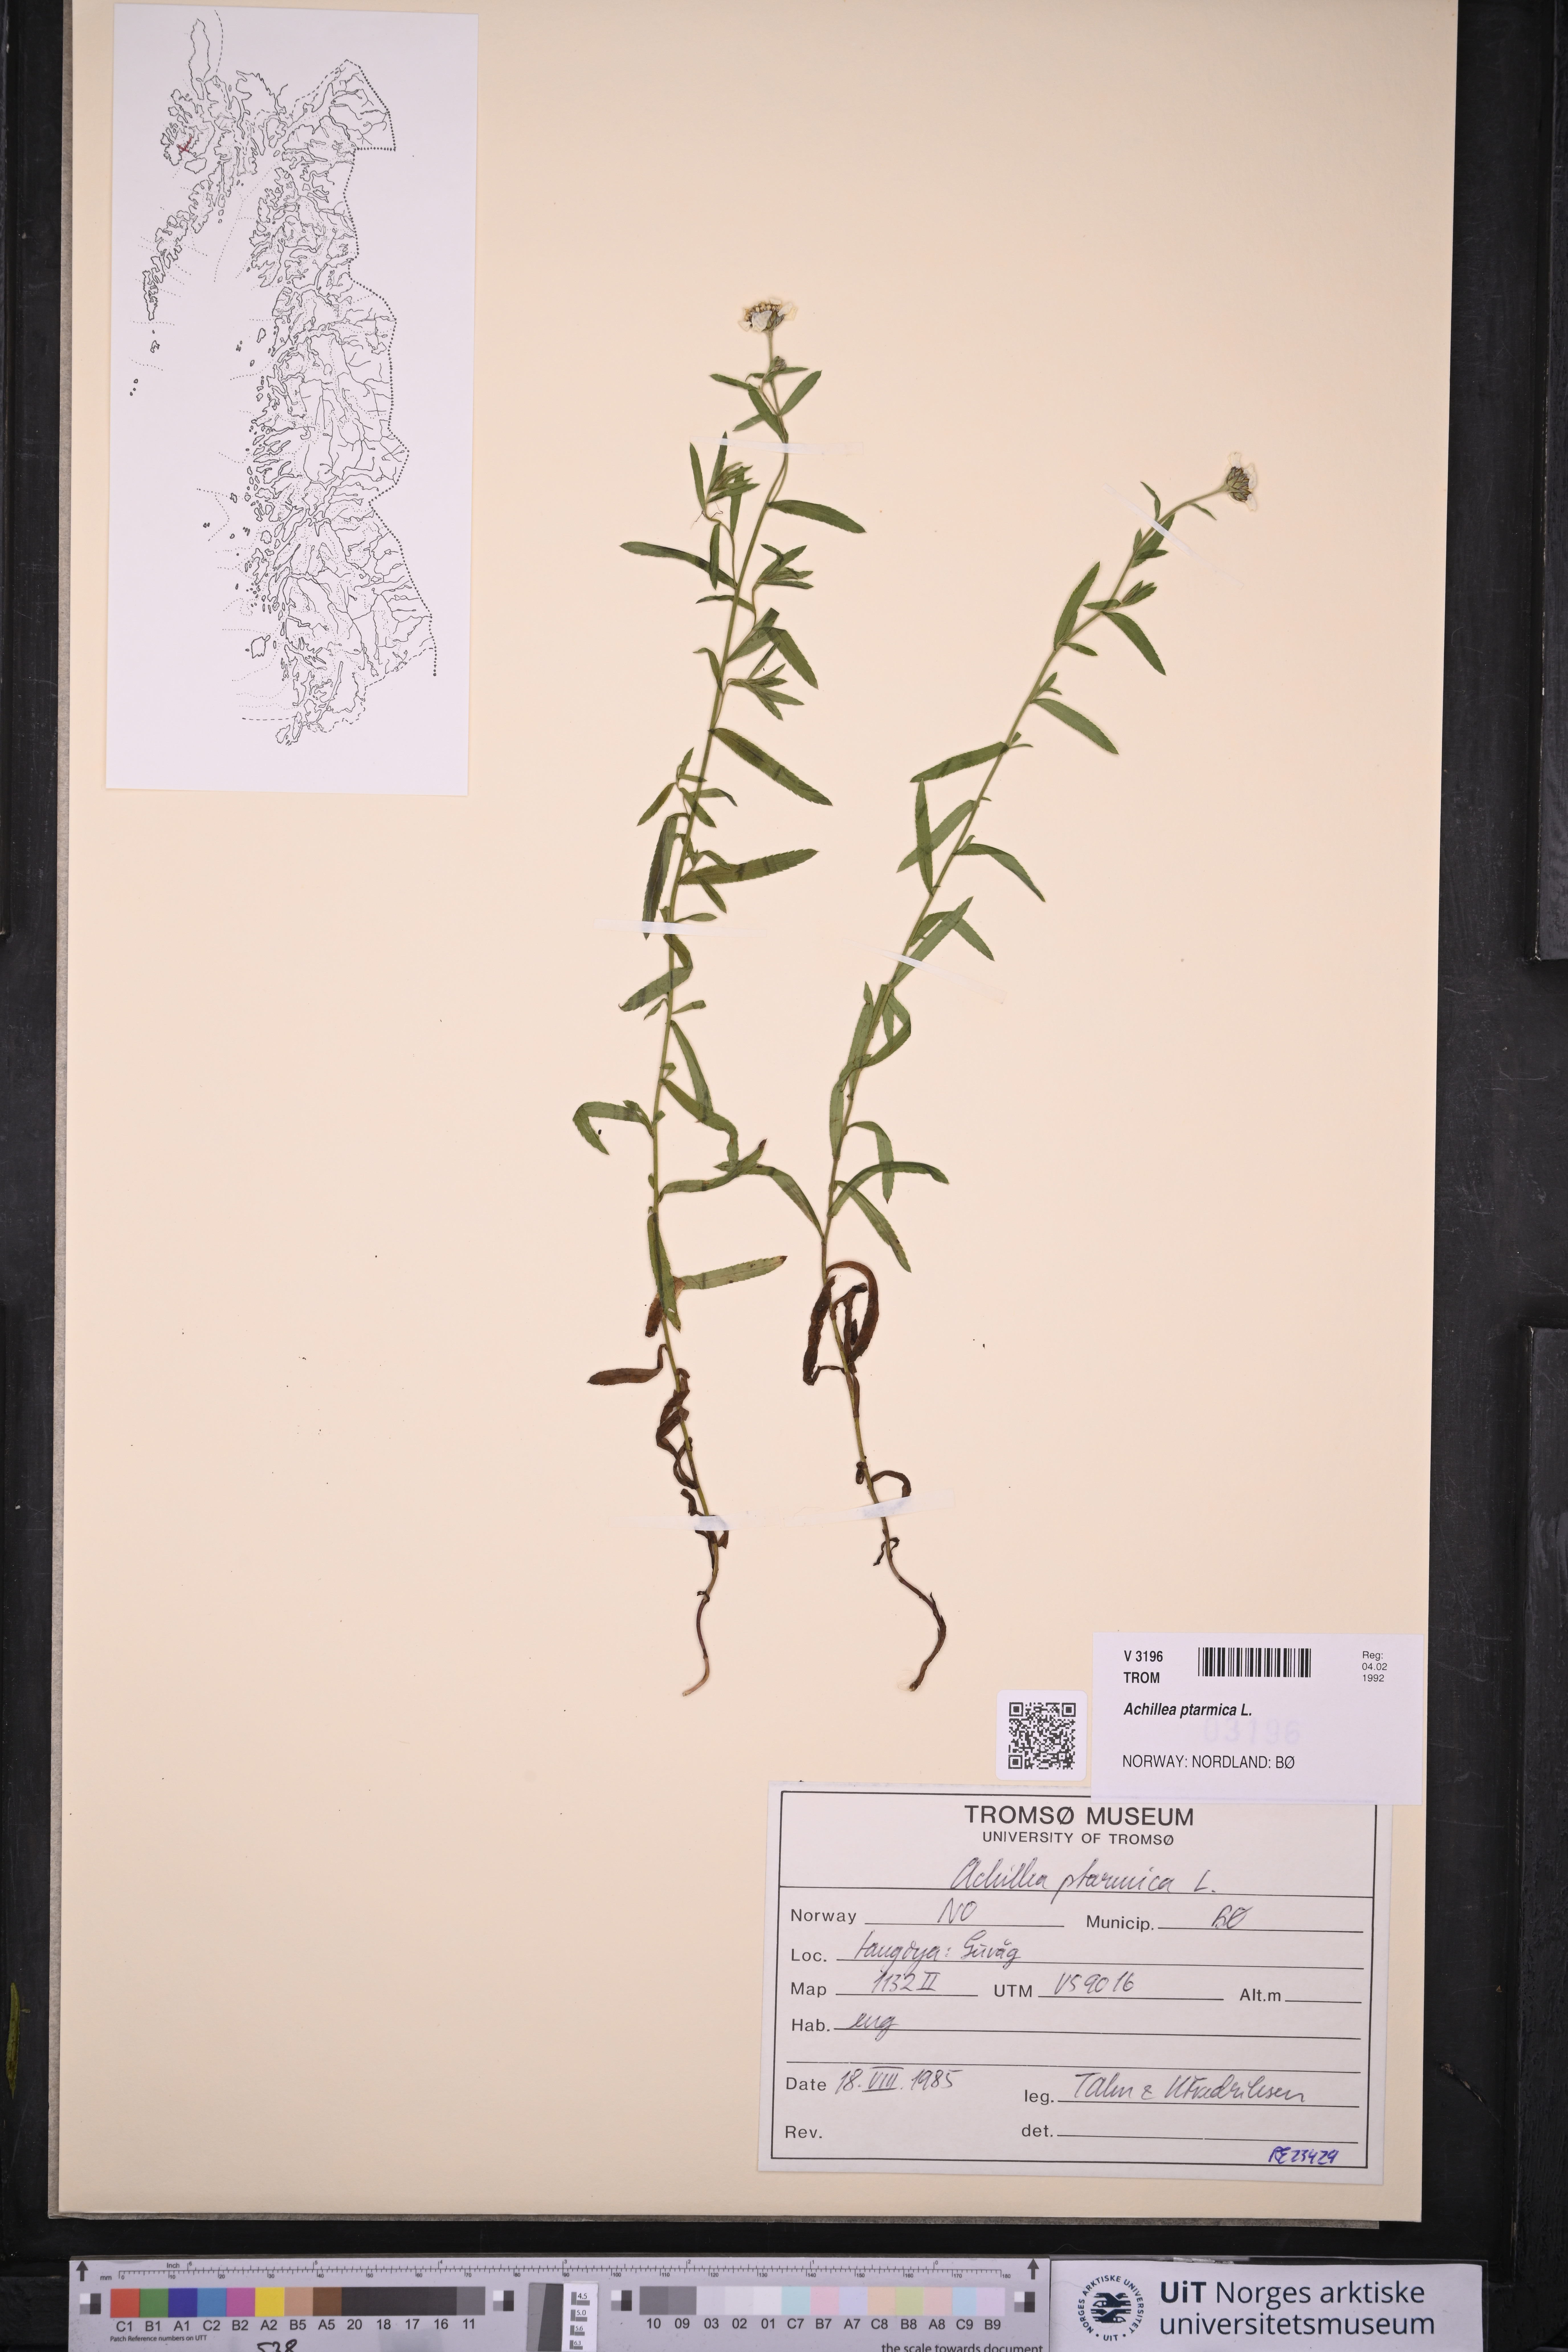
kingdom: Plantae
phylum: Tracheophyta
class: Magnoliopsida
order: Asterales
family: Asteraceae
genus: Achillea
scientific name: Achillea ptarmica
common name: Sneezeweed
